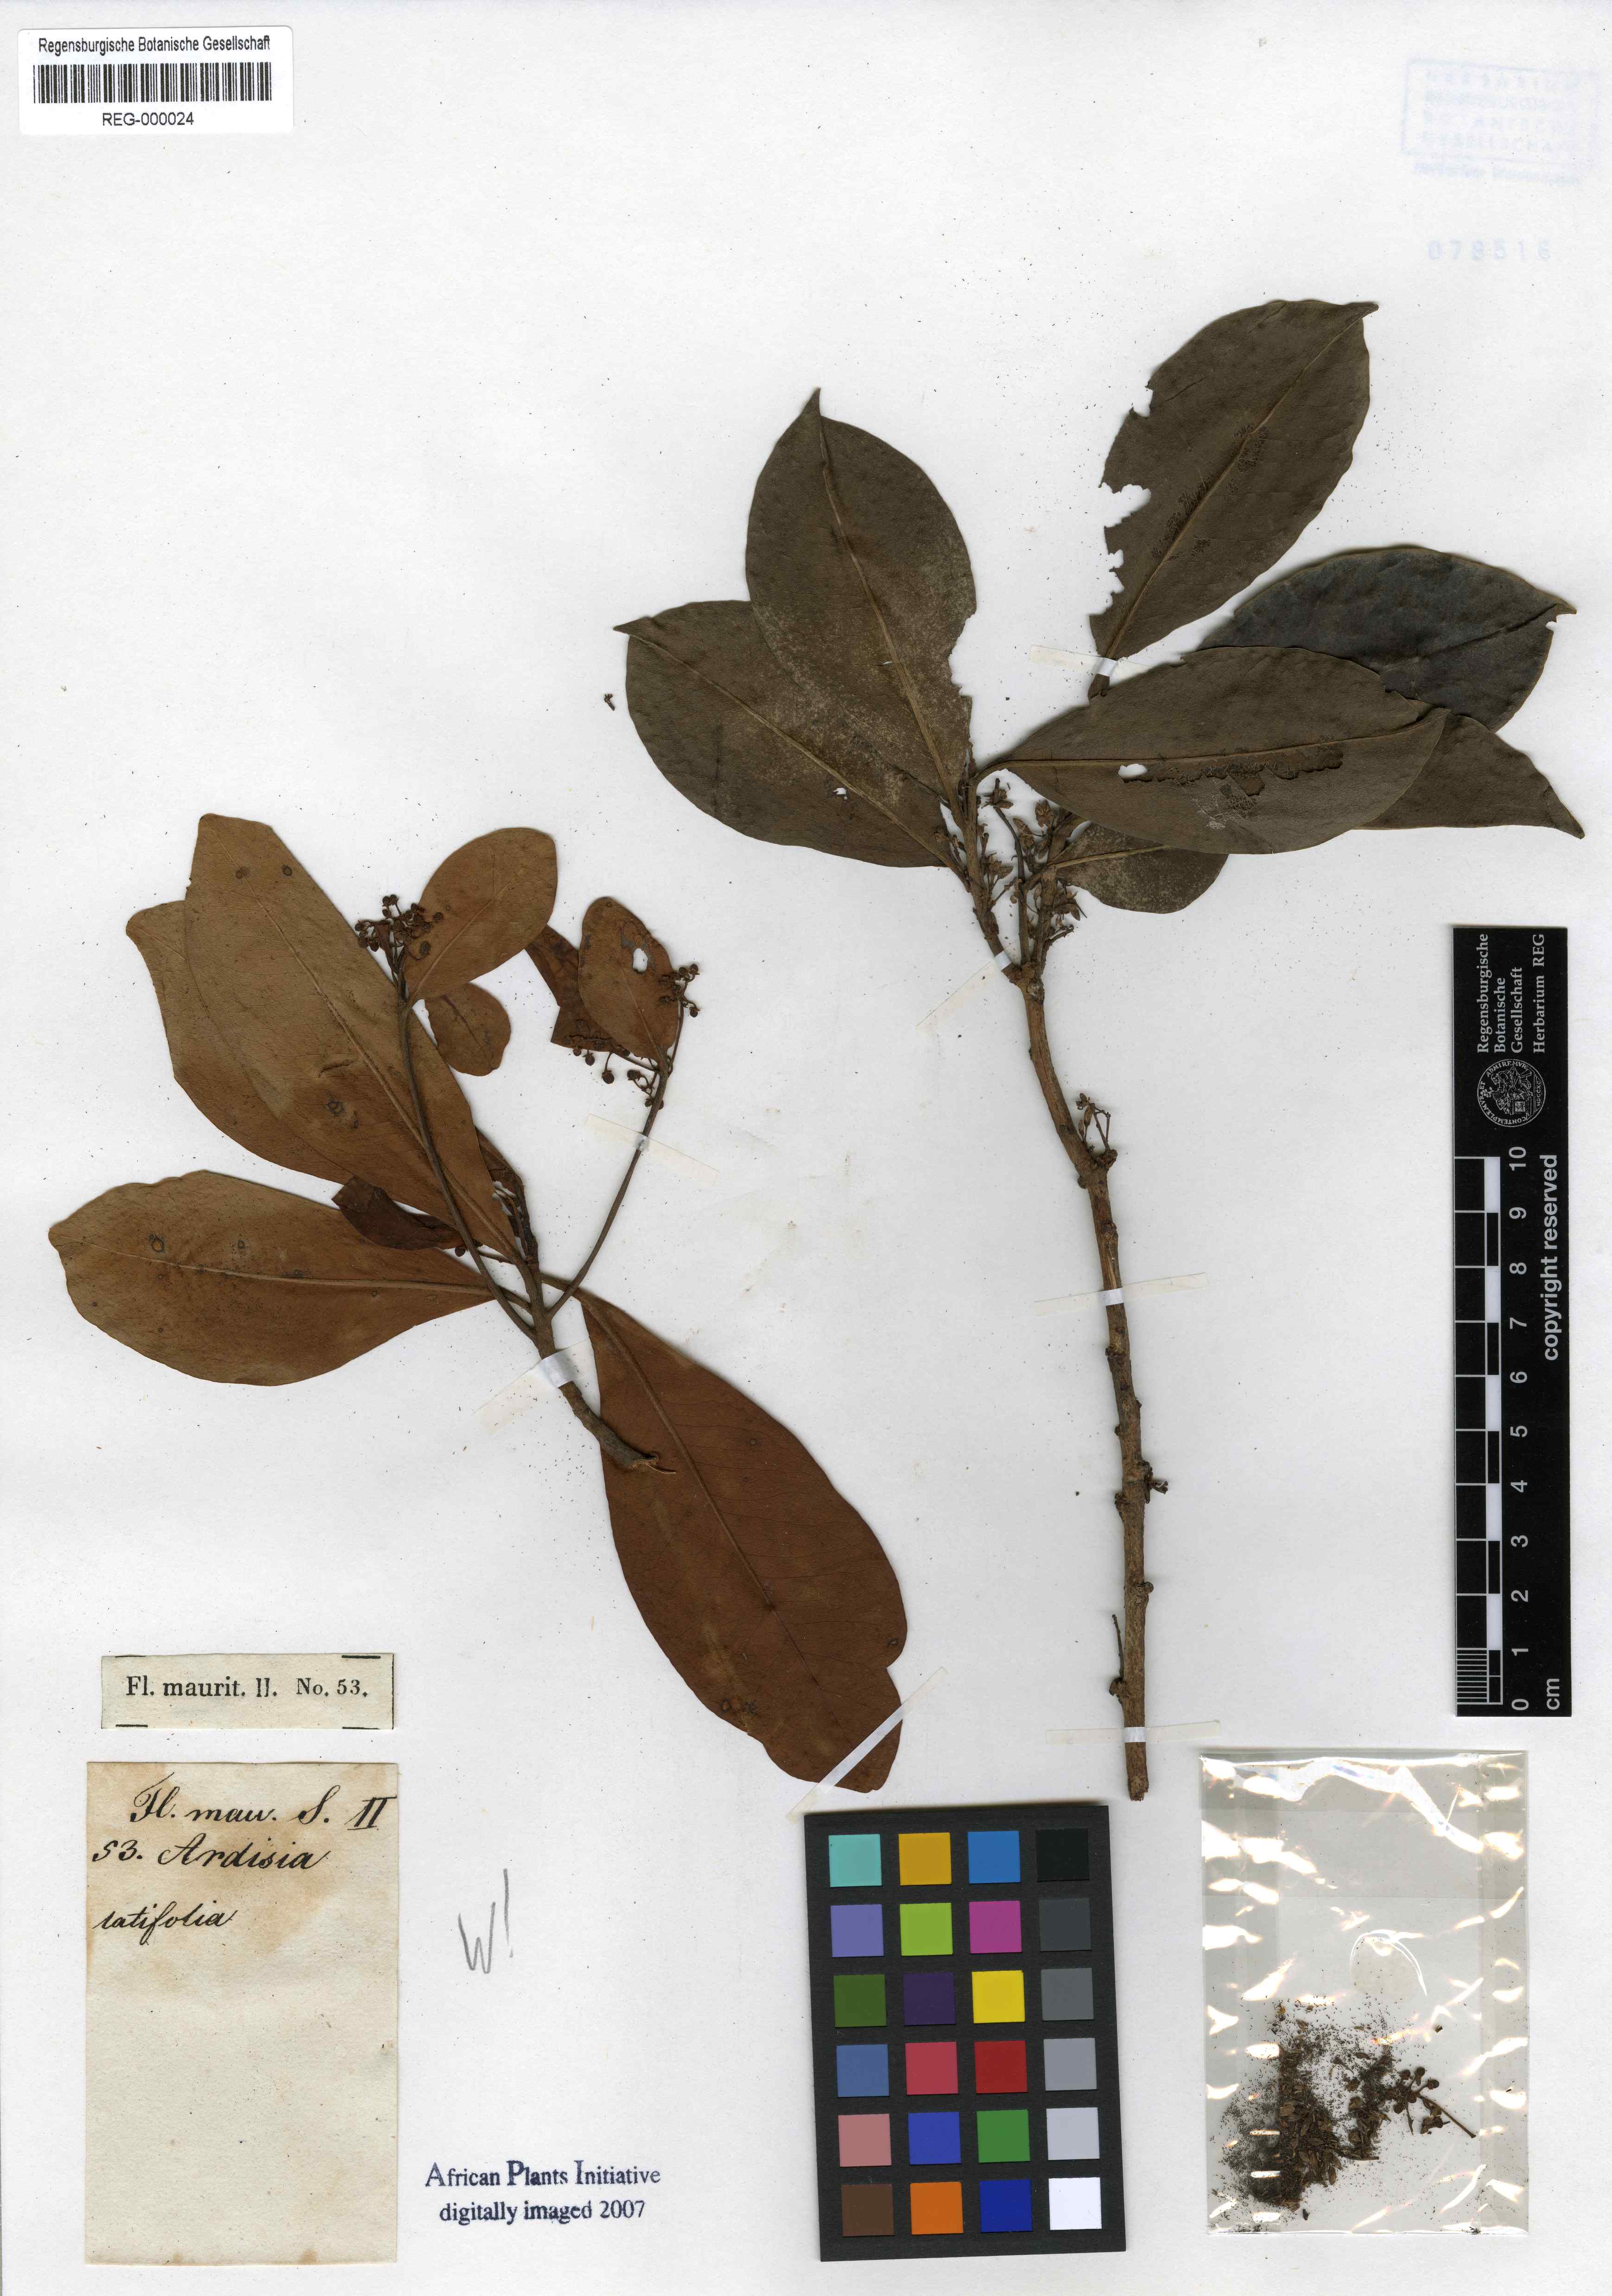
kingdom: Plantae
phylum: Tracheophyta
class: Magnoliopsida
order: Ericales
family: Primulaceae
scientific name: Primulaceae
